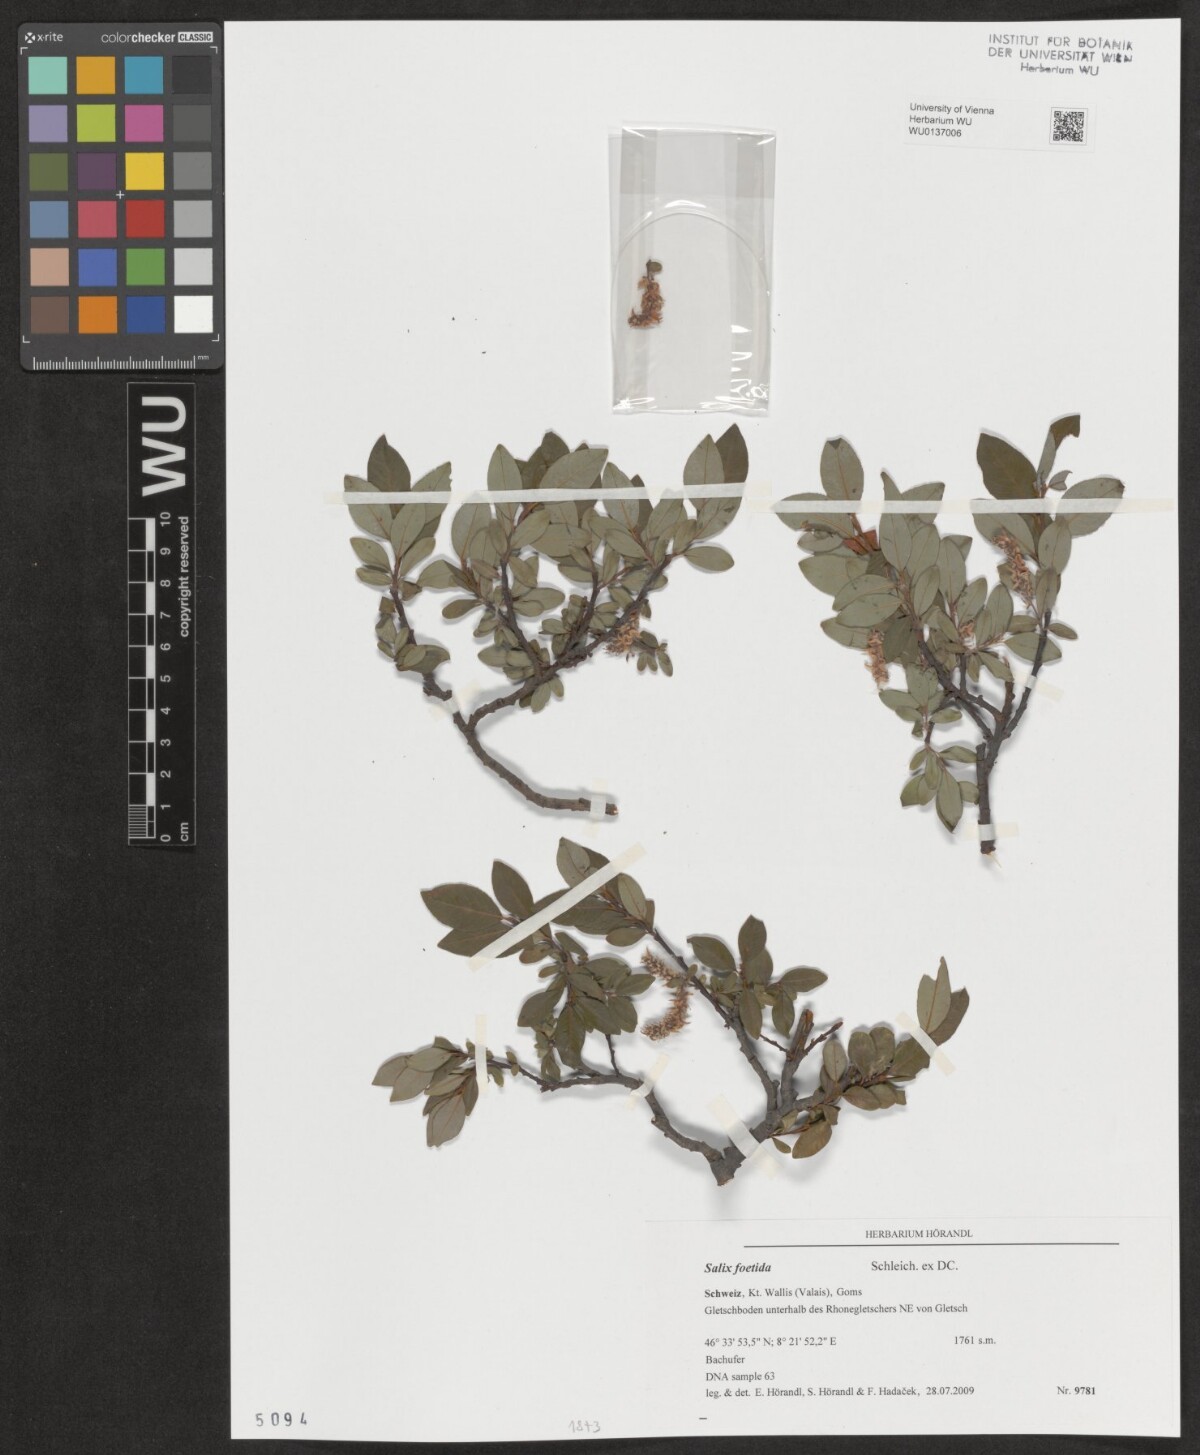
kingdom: Plantae
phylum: Tracheophyta
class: Magnoliopsida
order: Malpighiales
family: Salicaceae
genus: Salix
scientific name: Salix foetida
